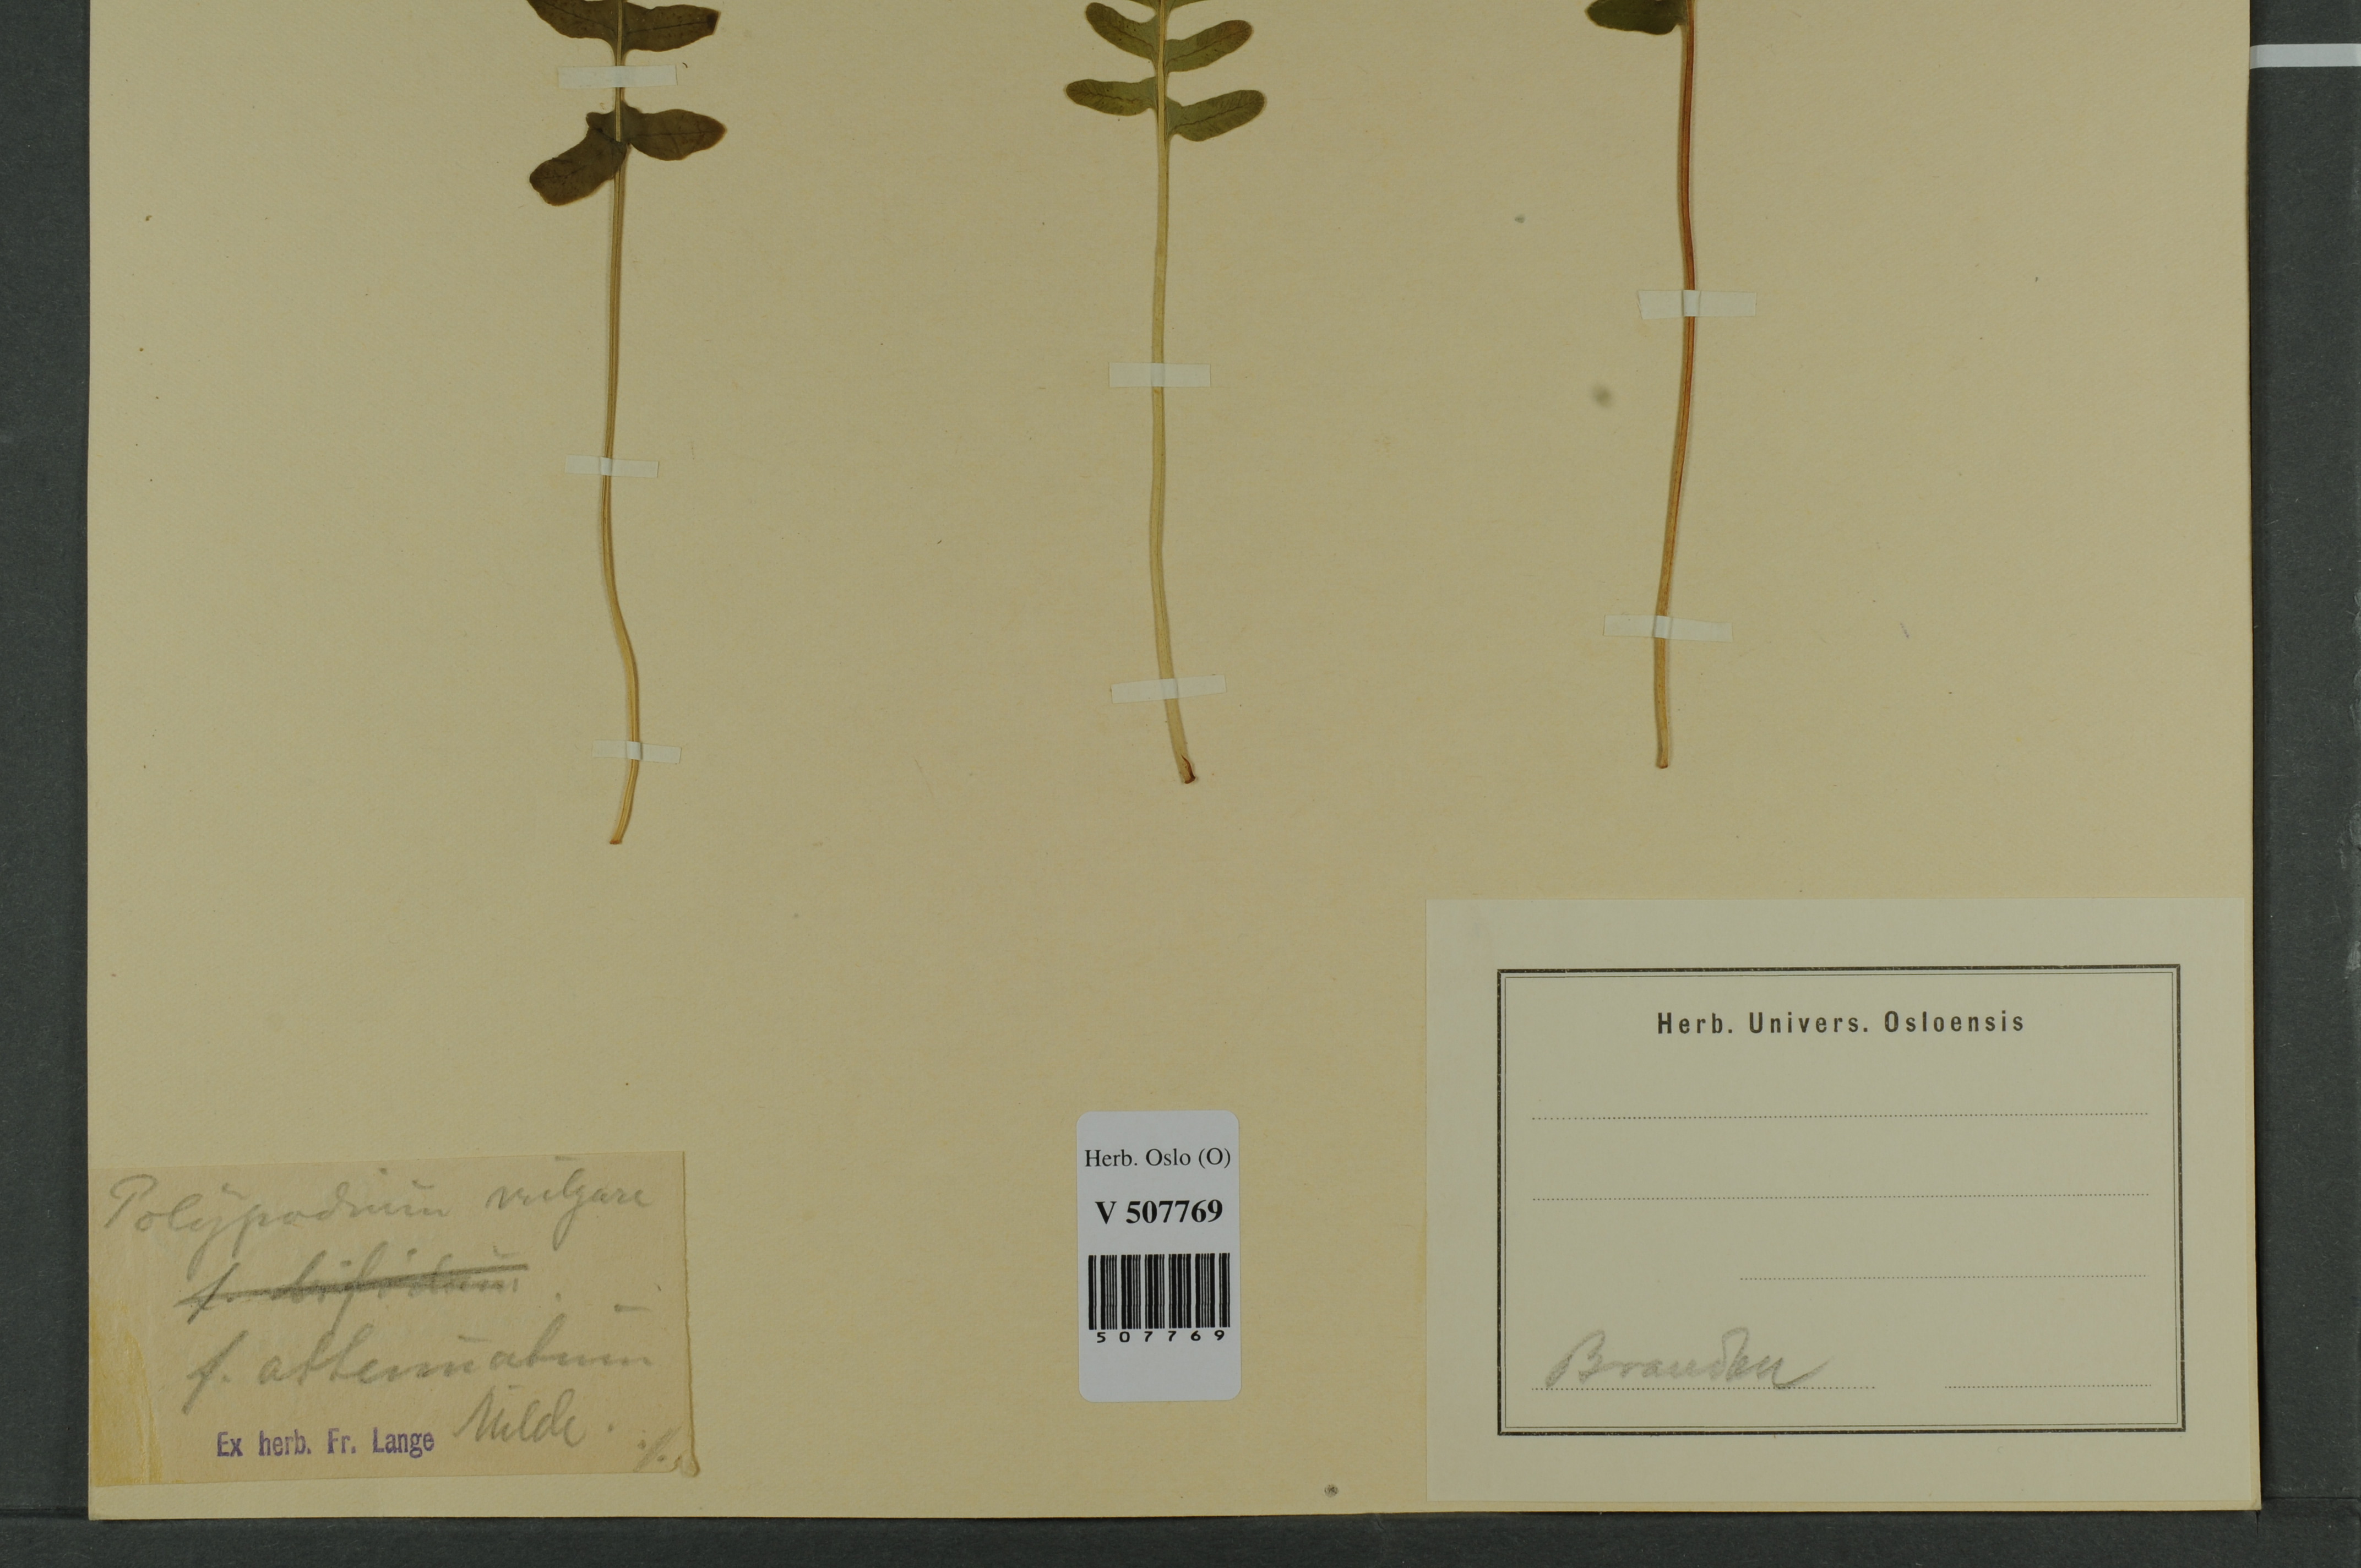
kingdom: Plantae
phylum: Tracheophyta
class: Polypodiopsida
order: Polypodiales
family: Polypodiaceae
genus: Polypodium
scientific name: Polypodium vulgare
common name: Common polypody
